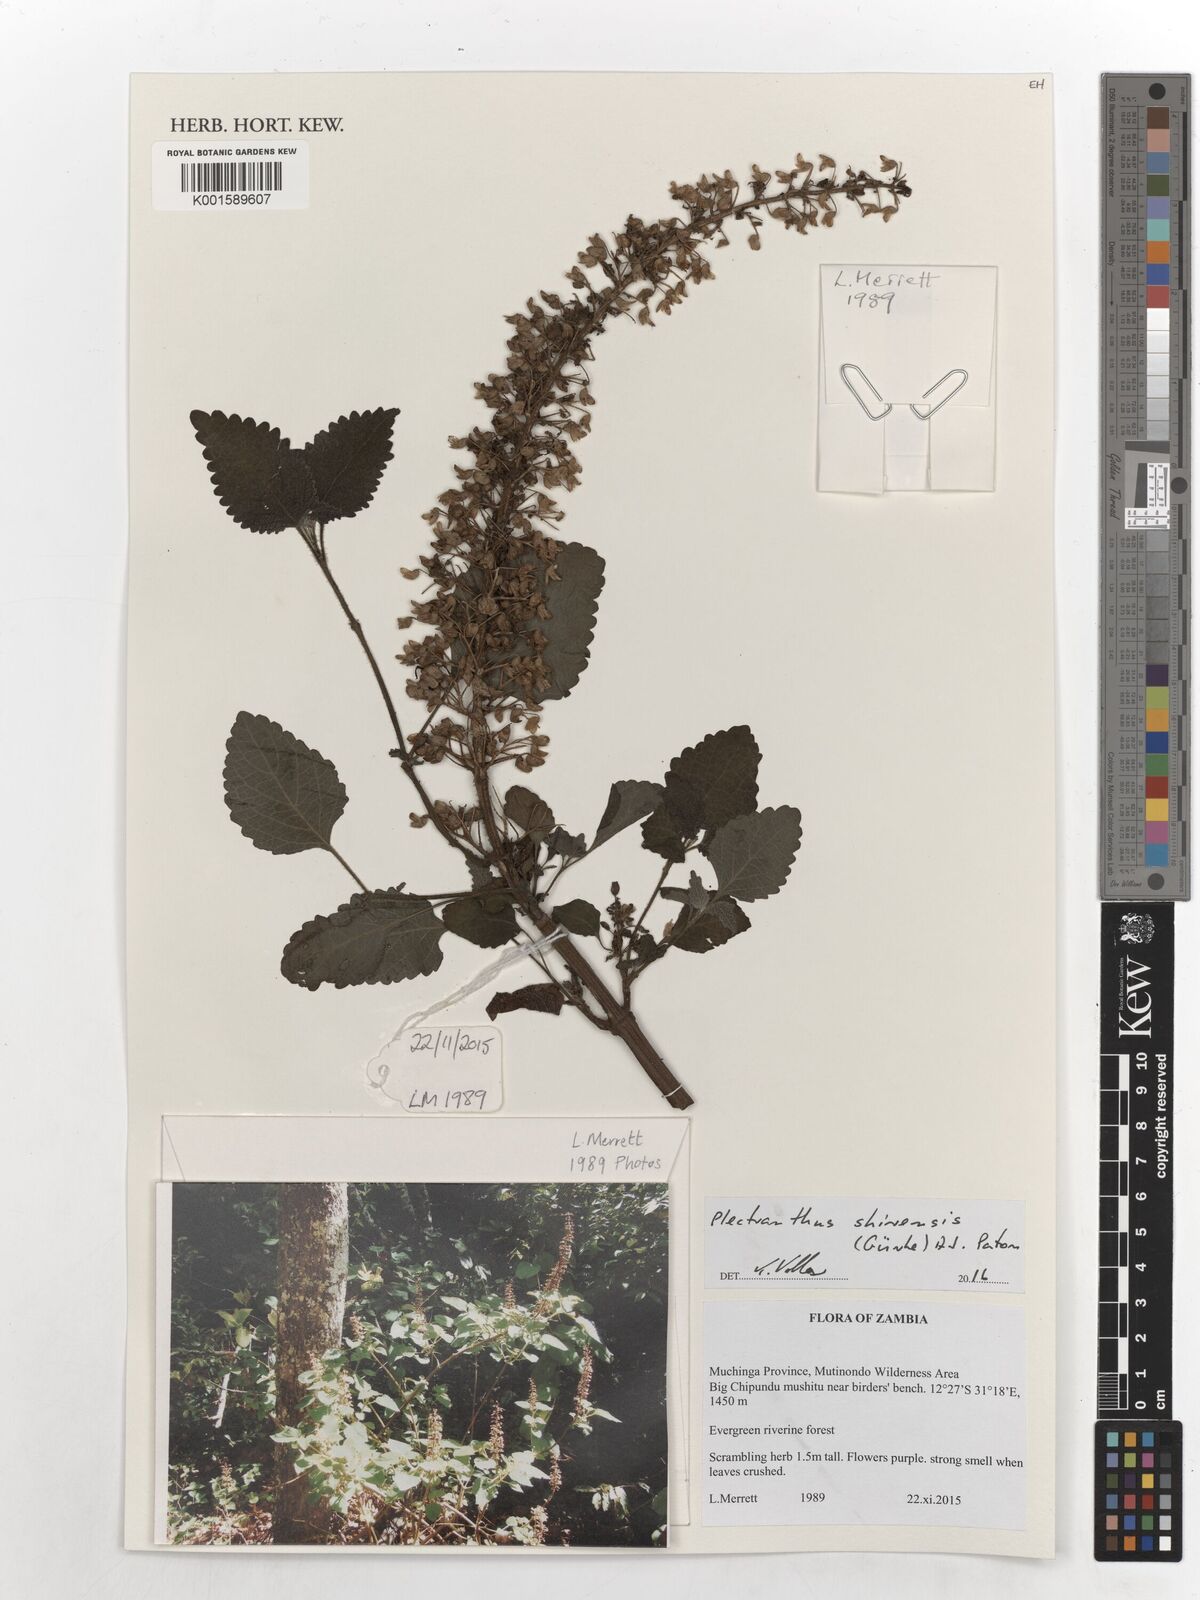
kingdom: Plantae
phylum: Tracheophyta
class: Magnoliopsida
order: Lamiales
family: Lamiaceae
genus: Coleus
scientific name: Coleus shirensis
